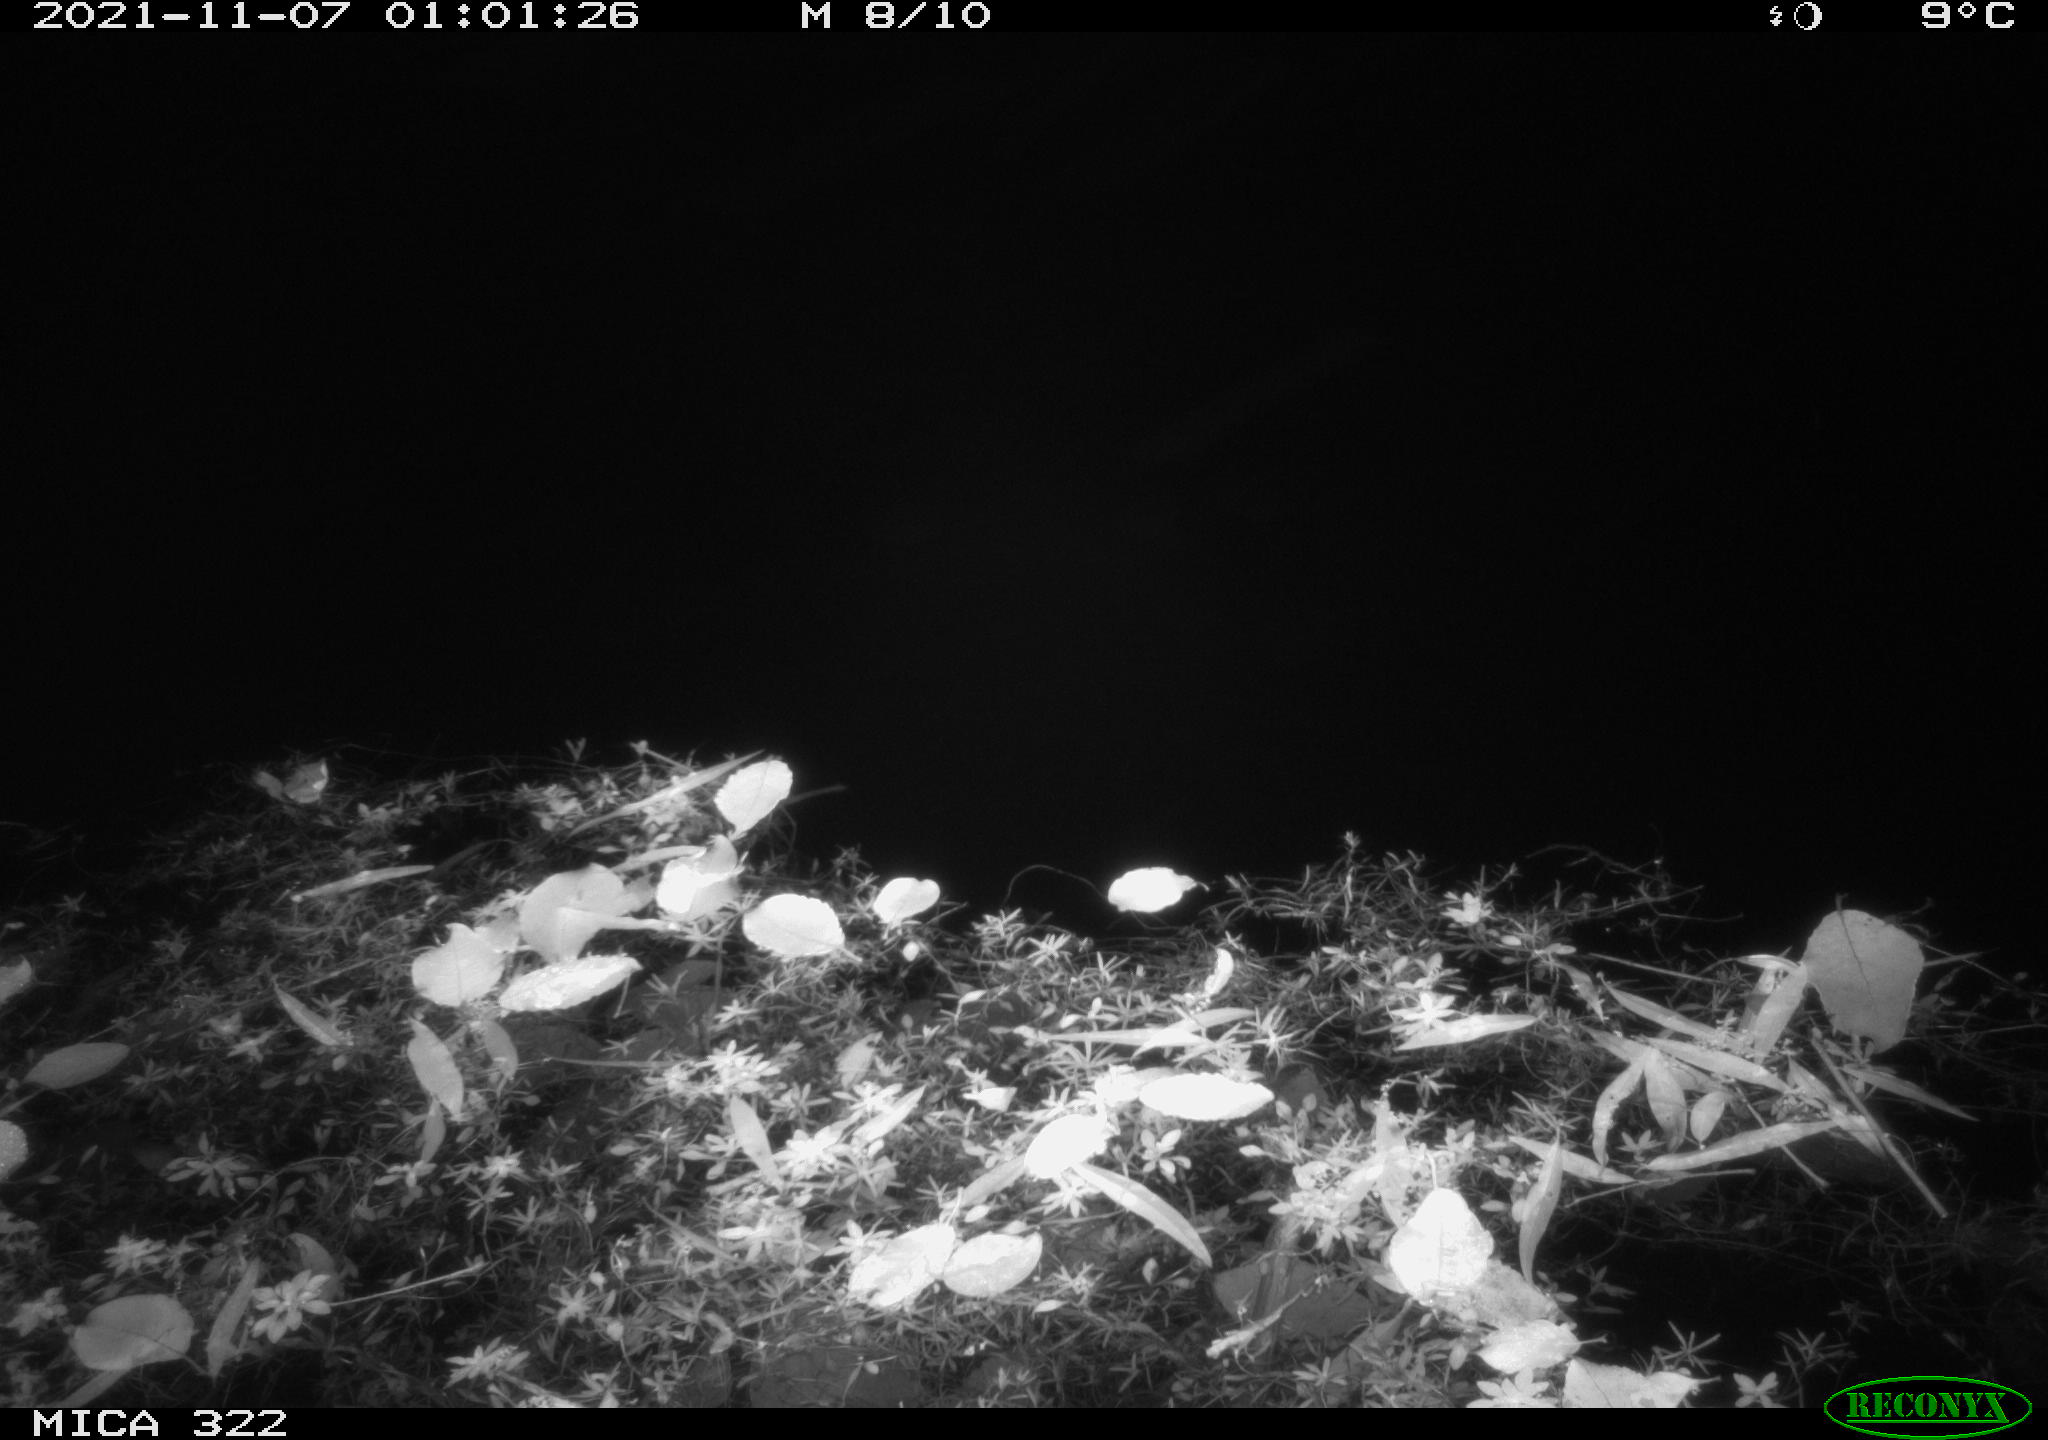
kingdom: Animalia
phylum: Chordata
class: Mammalia
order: Rodentia
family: Muridae
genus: Rattus
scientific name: Rattus norvegicus
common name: Brown rat
